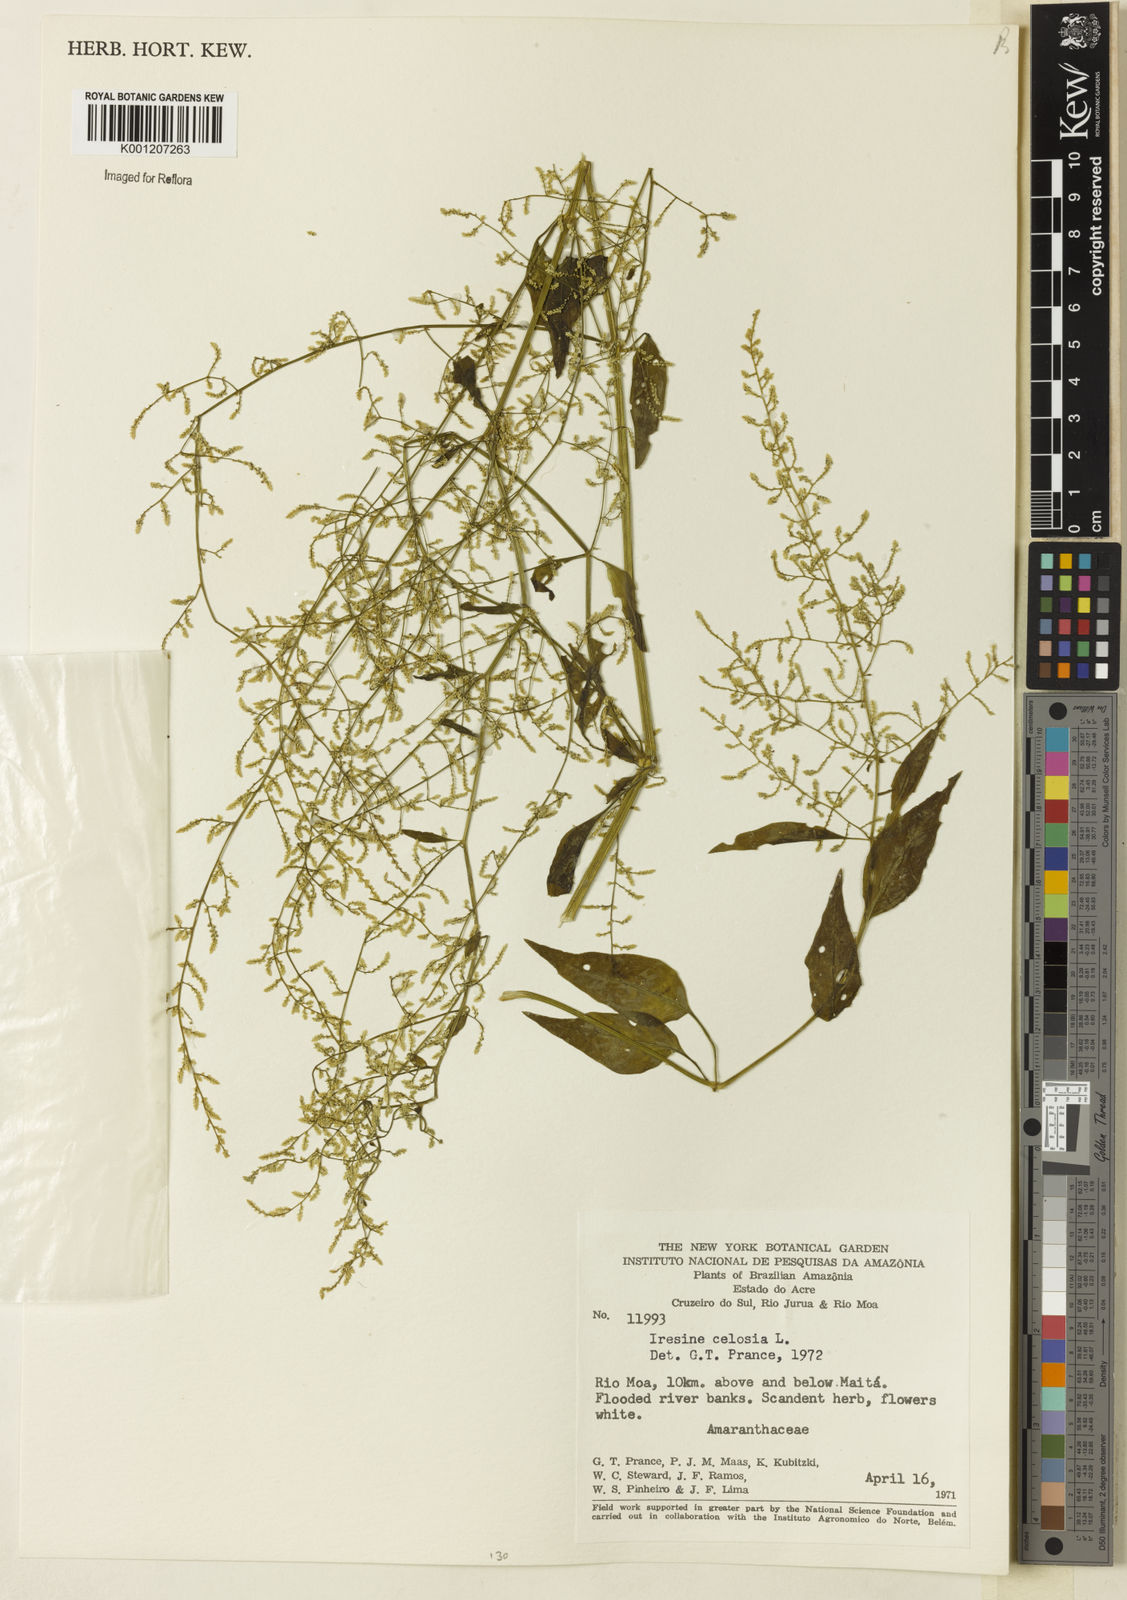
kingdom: Plantae
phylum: Tracheophyta
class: Magnoliopsida
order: Caryophyllales
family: Amaranthaceae
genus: Iresine
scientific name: Iresine rhizomatosa
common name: Juda's-bush
